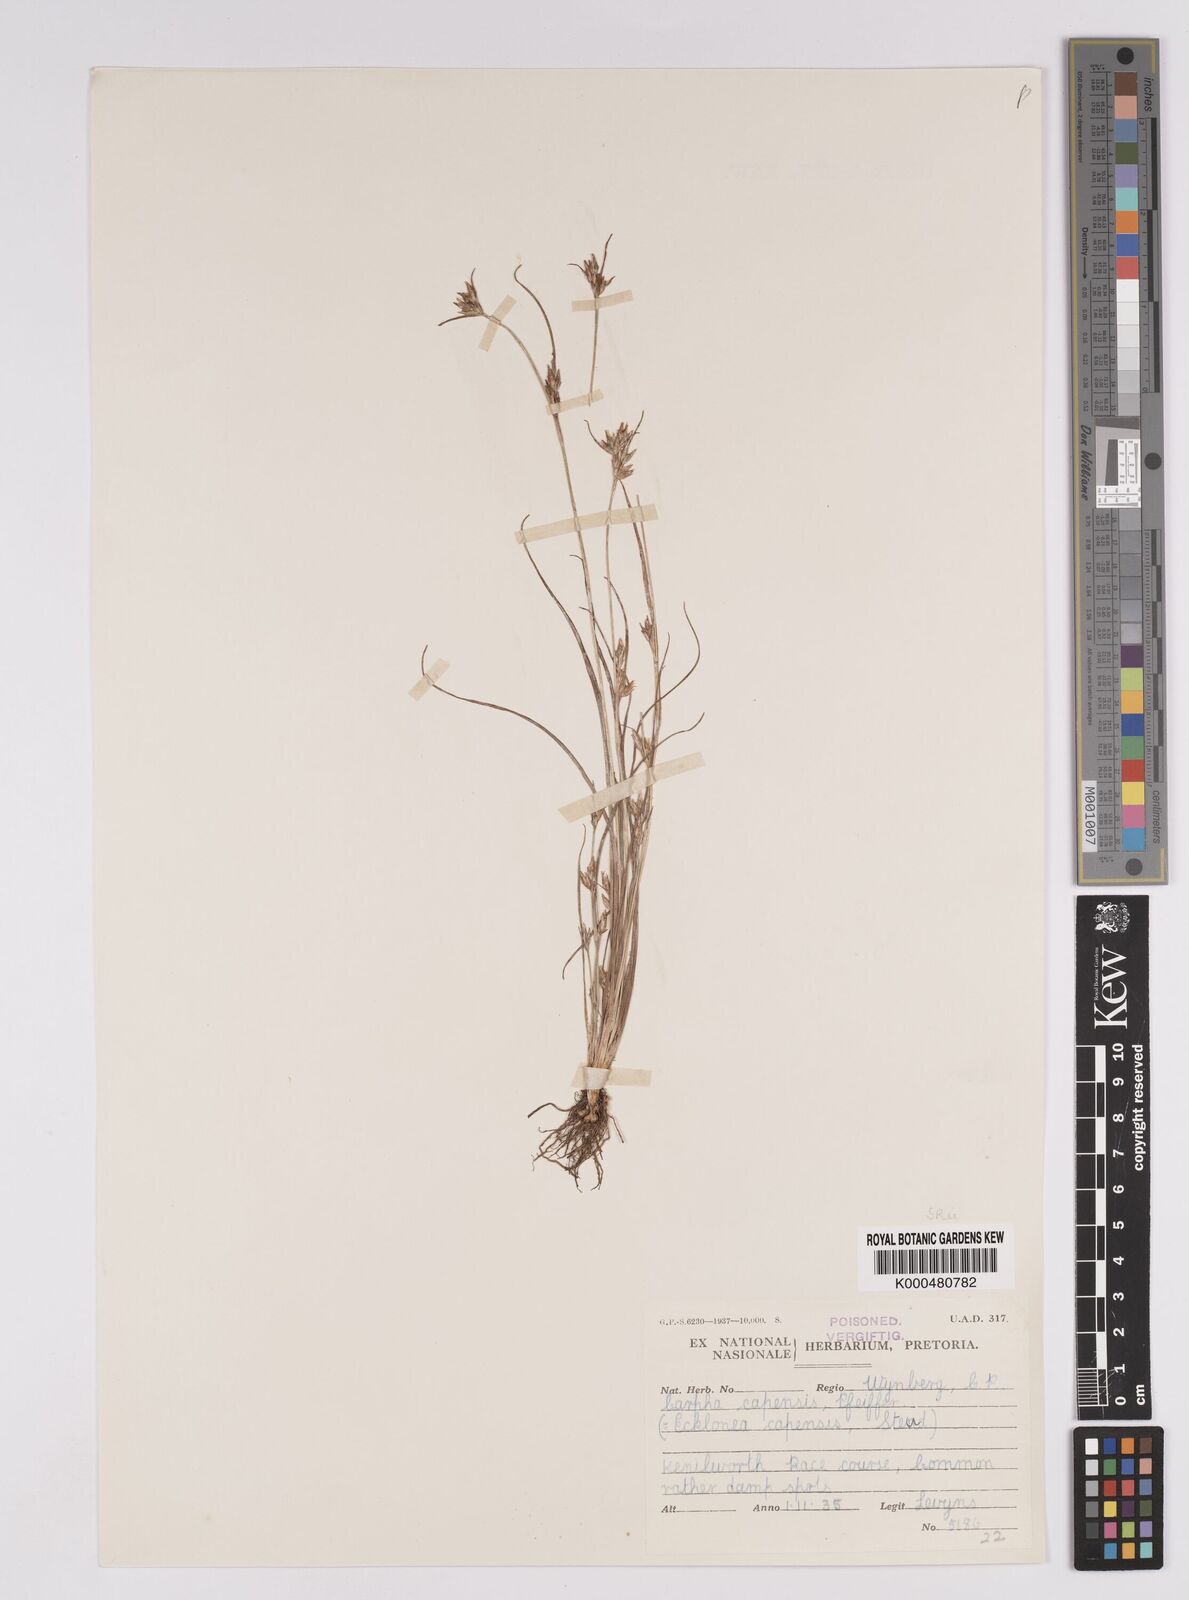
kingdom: Plantae
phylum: Tracheophyta
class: Liliopsida
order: Poales
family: Cyperaceae
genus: Carpha
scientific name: Carpha
